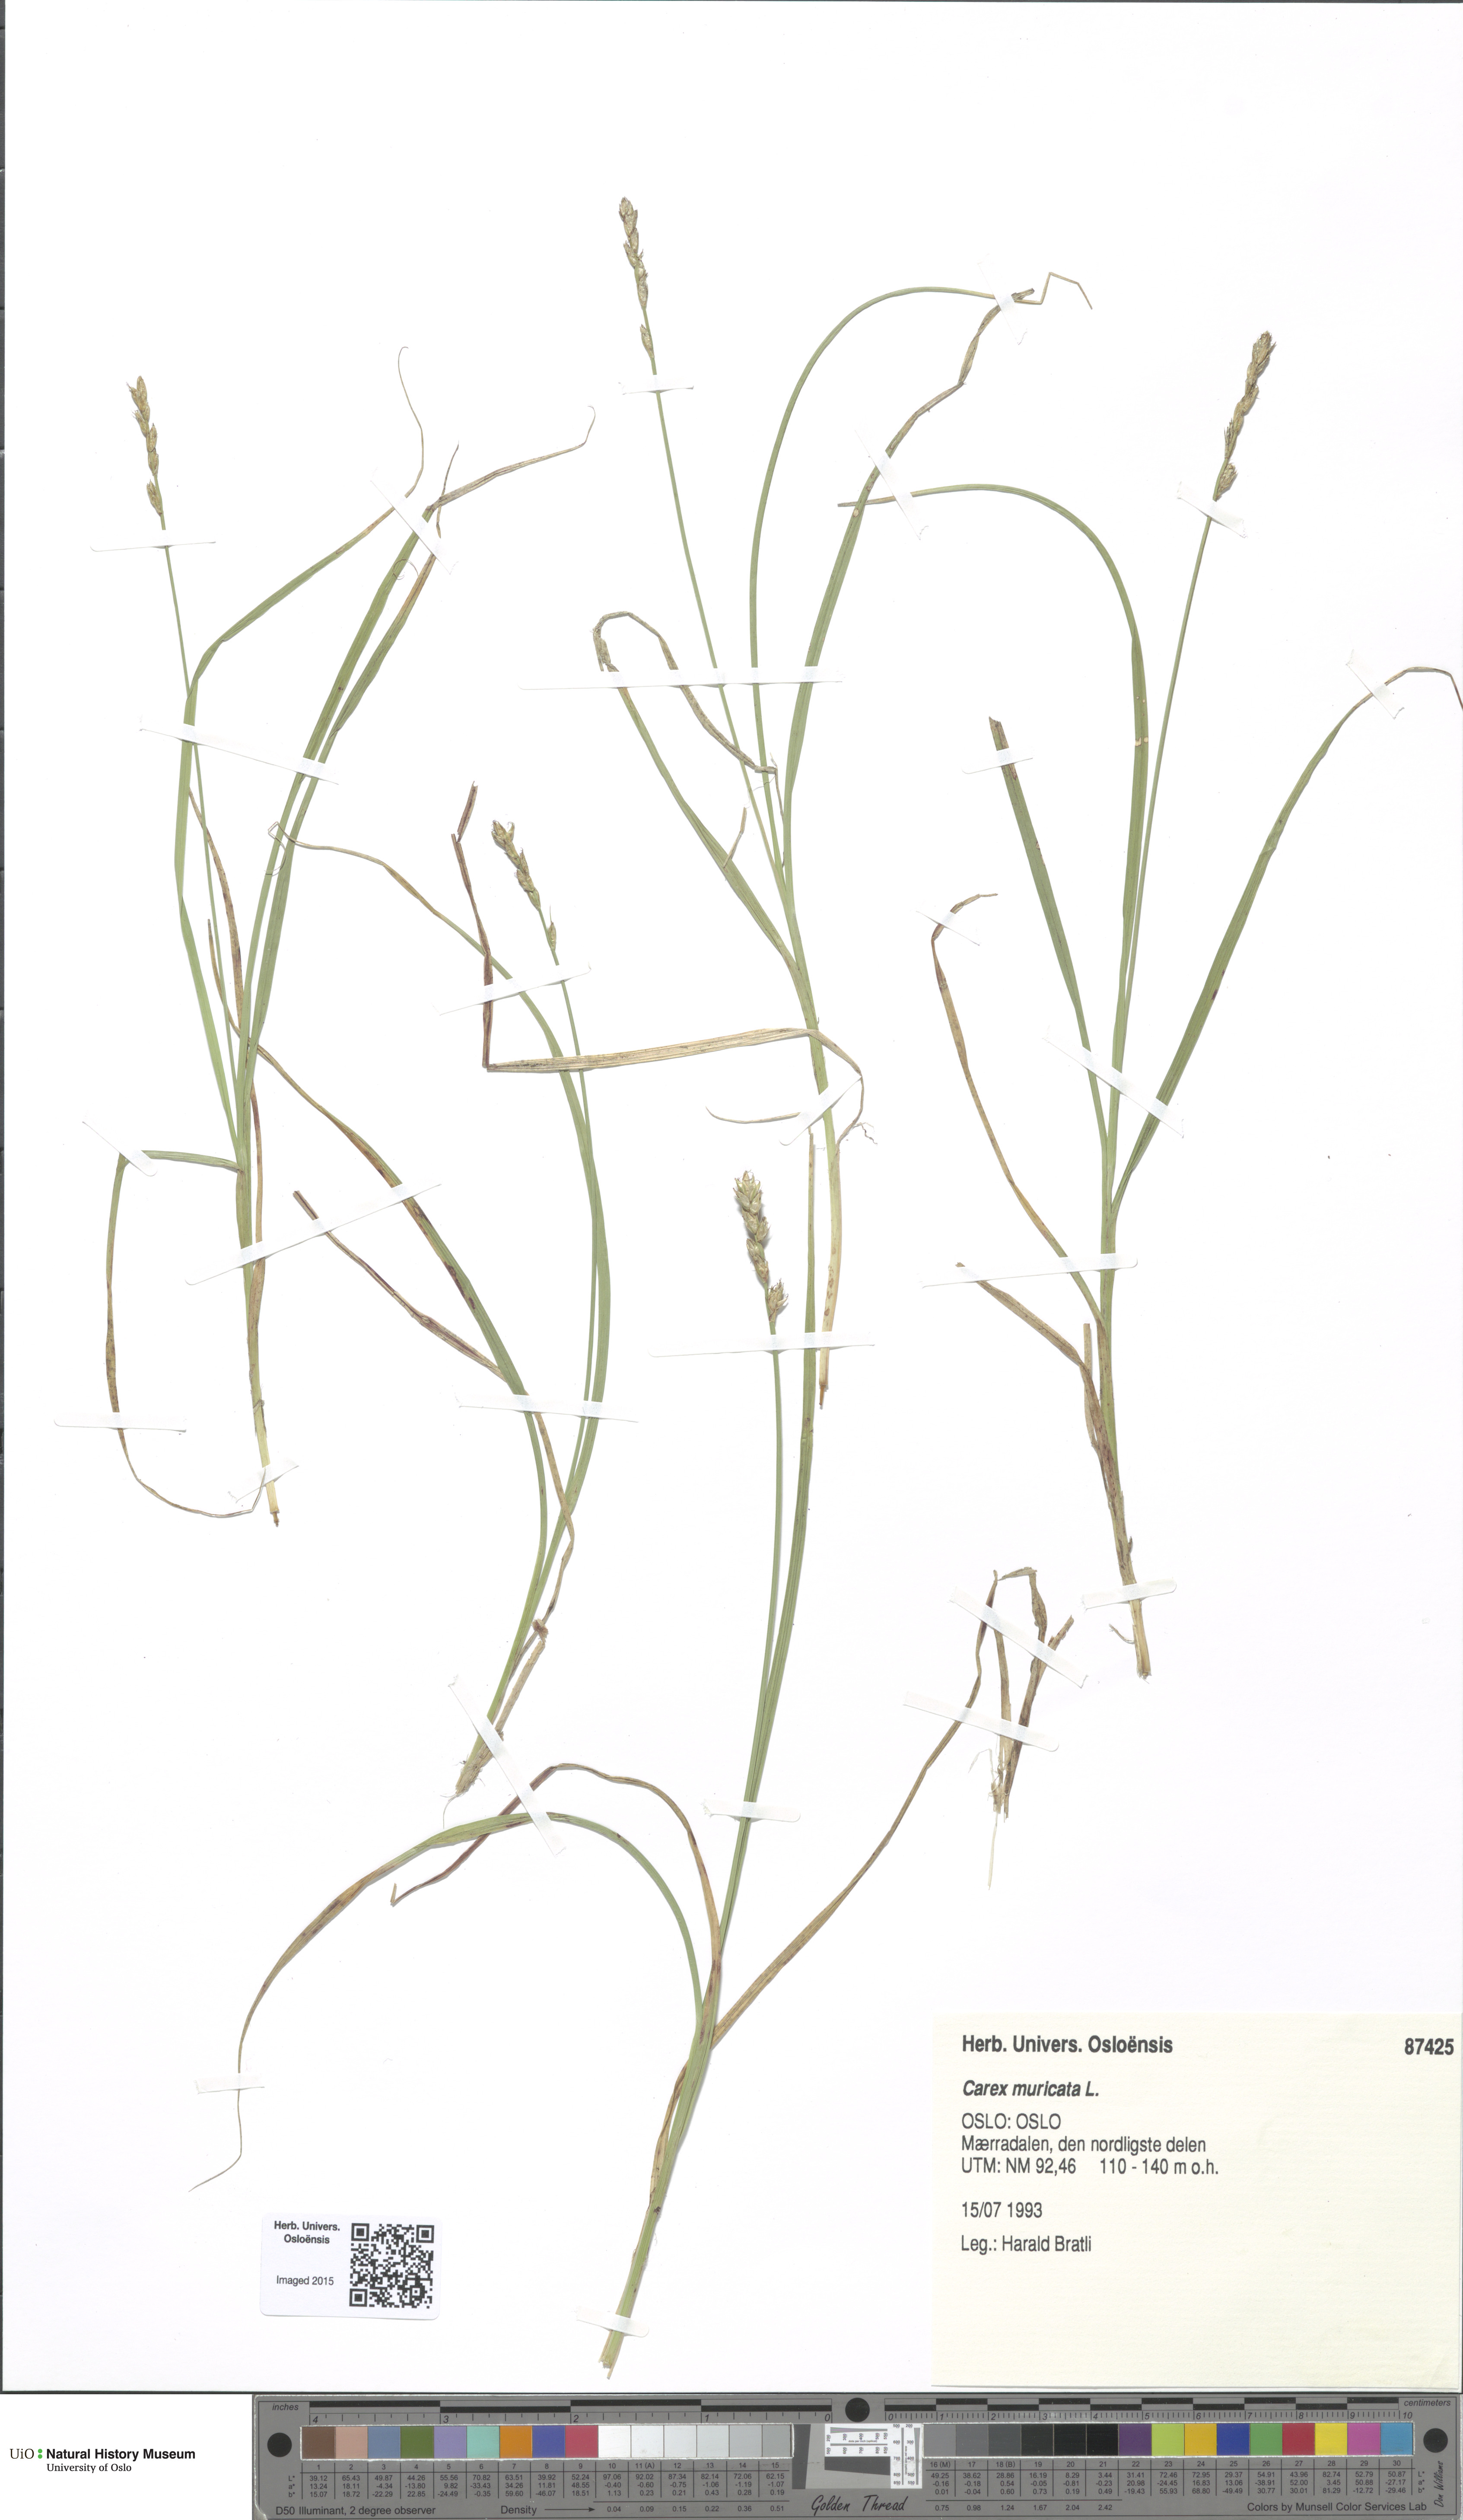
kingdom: Plantae
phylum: Tracheophyta
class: Liliopsida
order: Poales
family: Cyperaceae
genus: Carex
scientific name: Carex muricata
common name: Rough sedge
